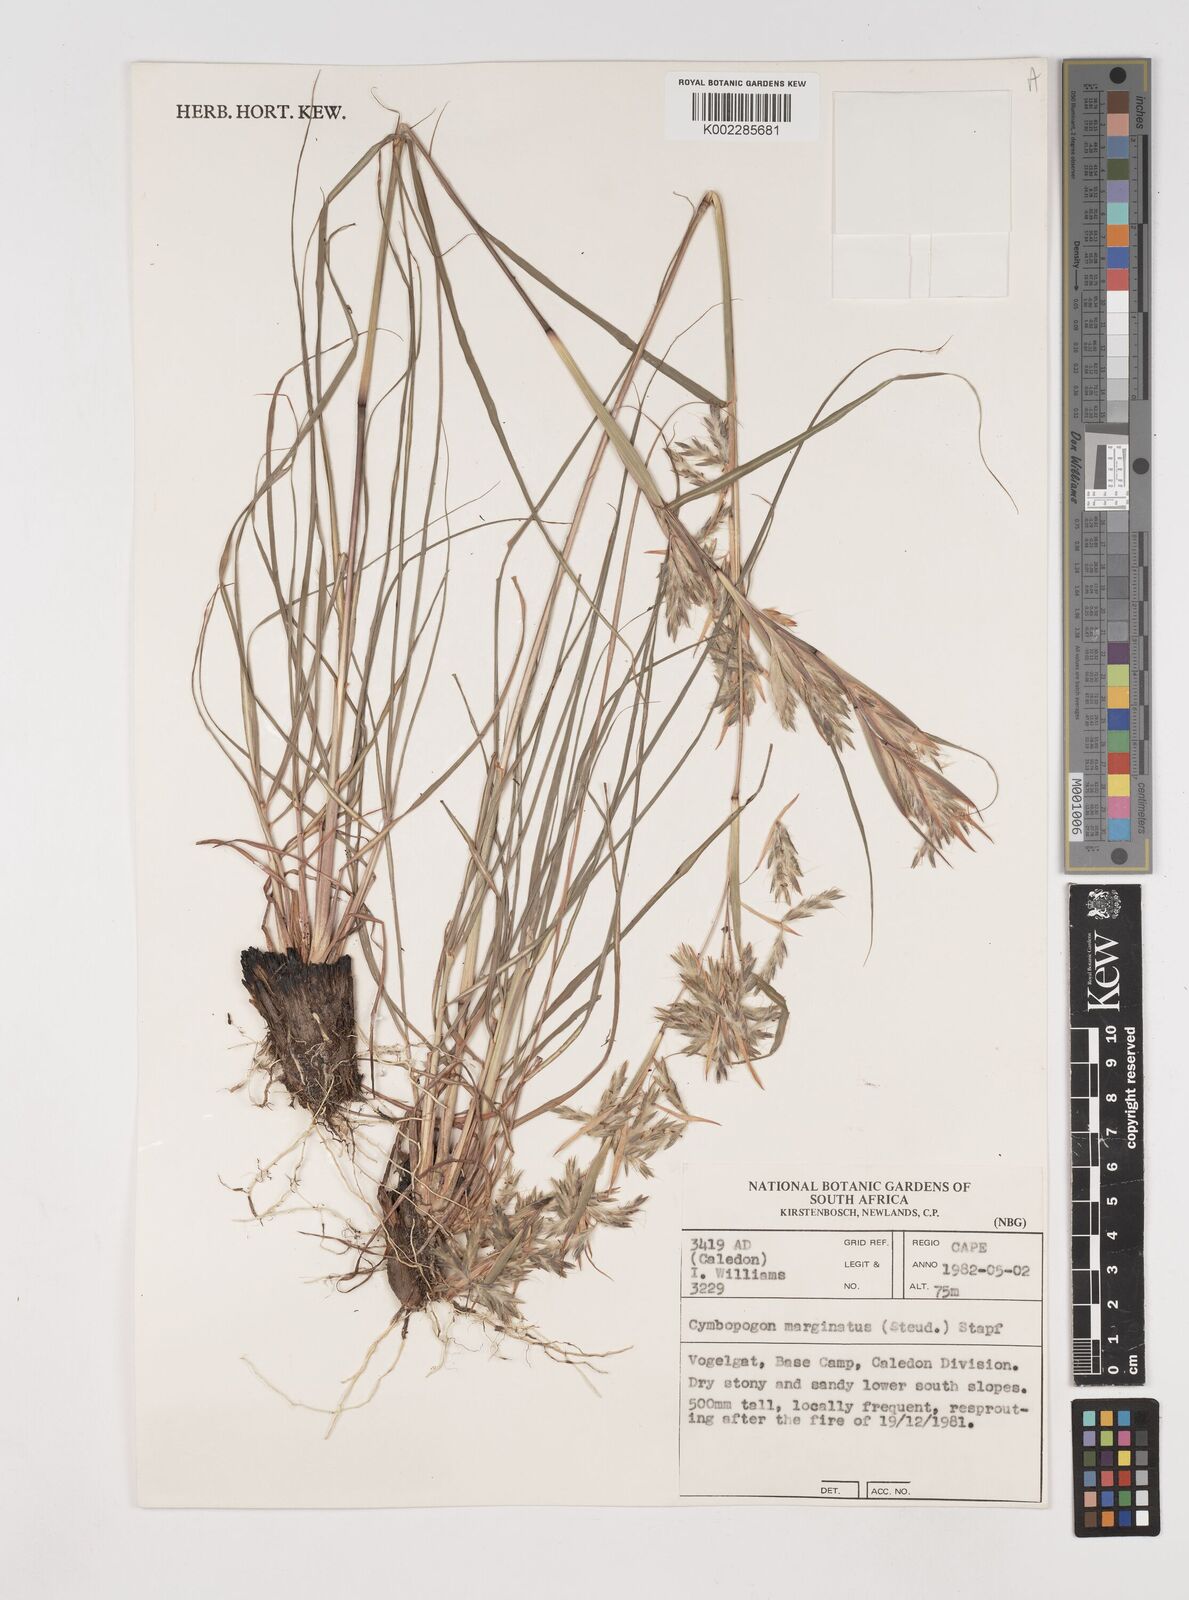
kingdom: Plantae
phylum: Tracheophyta
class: Liliopsida
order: Poales
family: Poaceae
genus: Cymbopogon
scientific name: Cymbopogon marginatus
